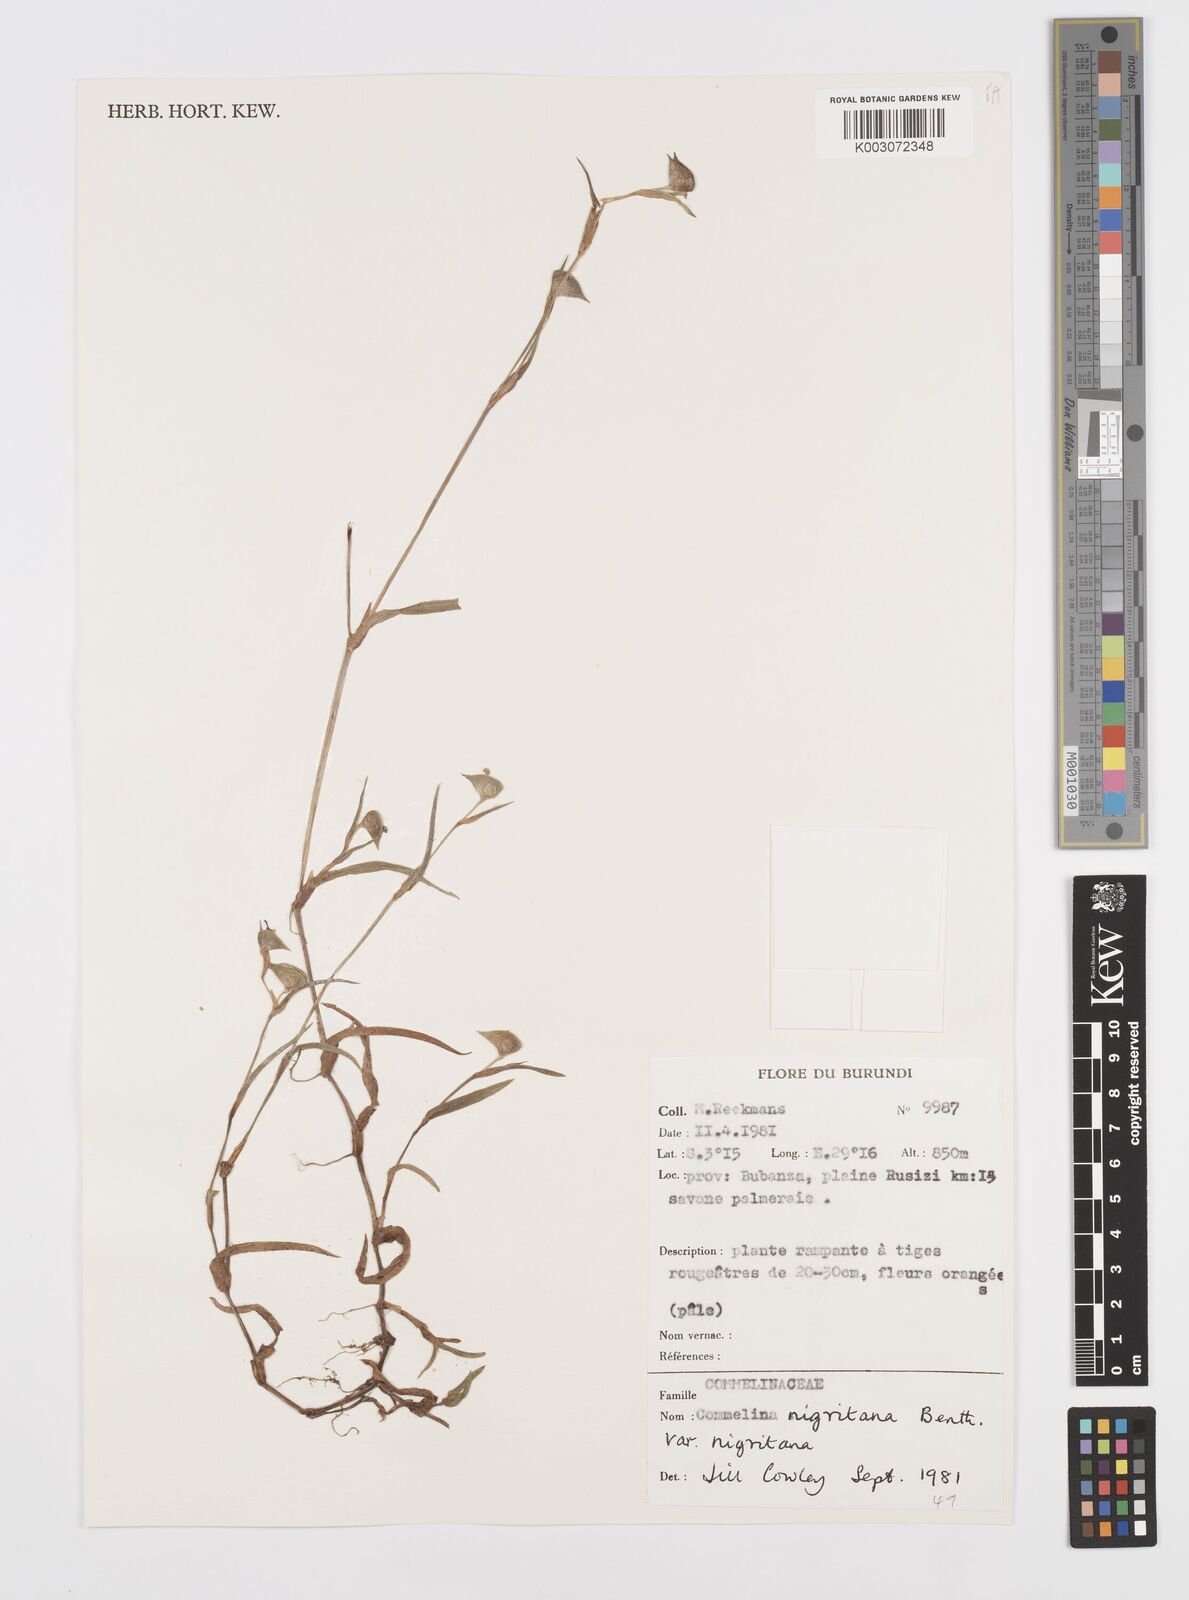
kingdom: Plantae
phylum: Tracheophyta
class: Liliopsida
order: Commelinales
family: Commelinaceae
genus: Commelina
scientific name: Commelina
